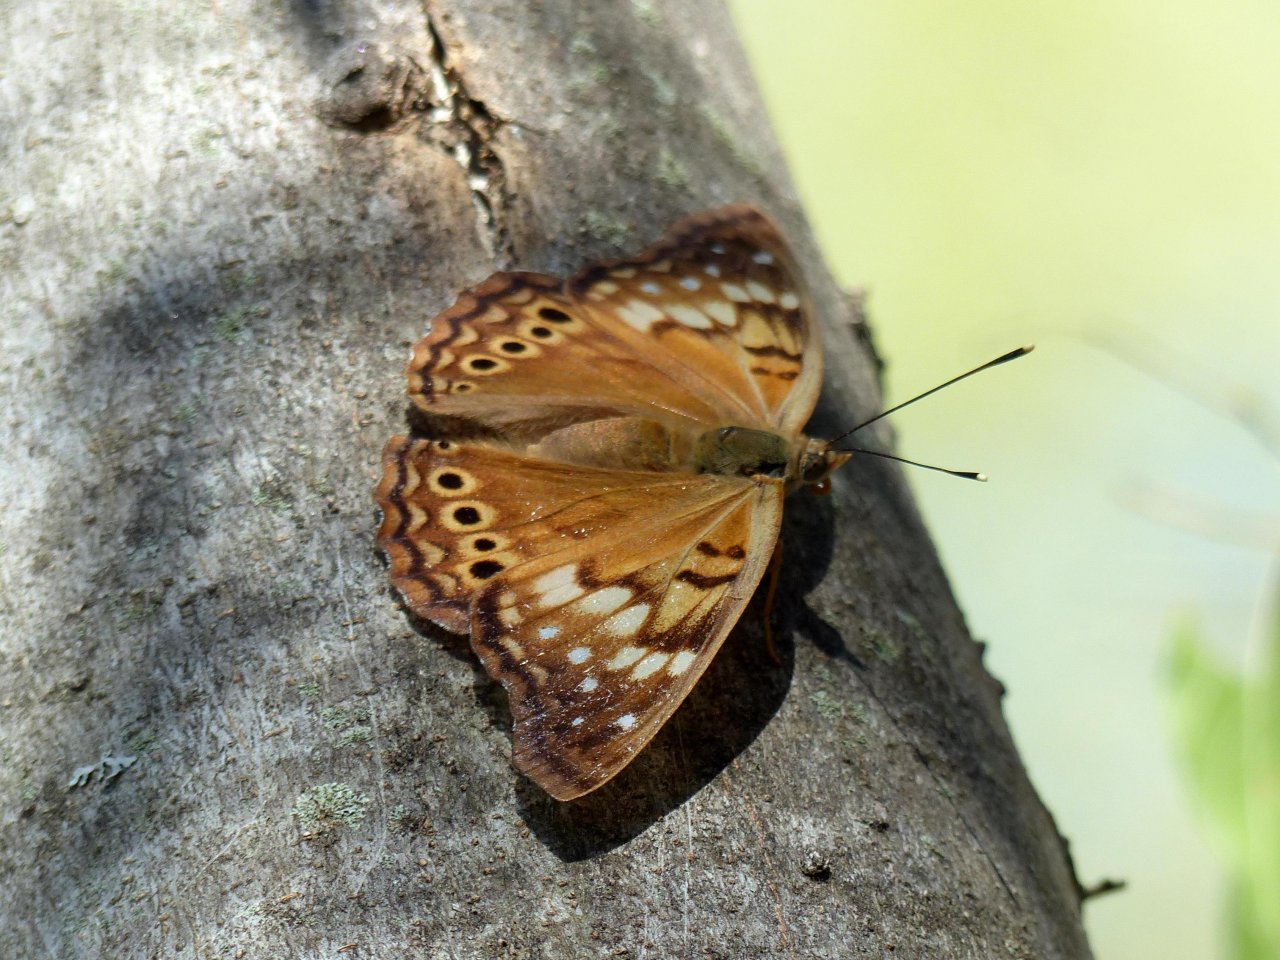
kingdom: Animalia
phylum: Arthropoda
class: Insecta
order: Lepidoptera
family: Nymphalidae
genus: Asterocampa
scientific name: Asterocampa clyton
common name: Tawny Emperor
